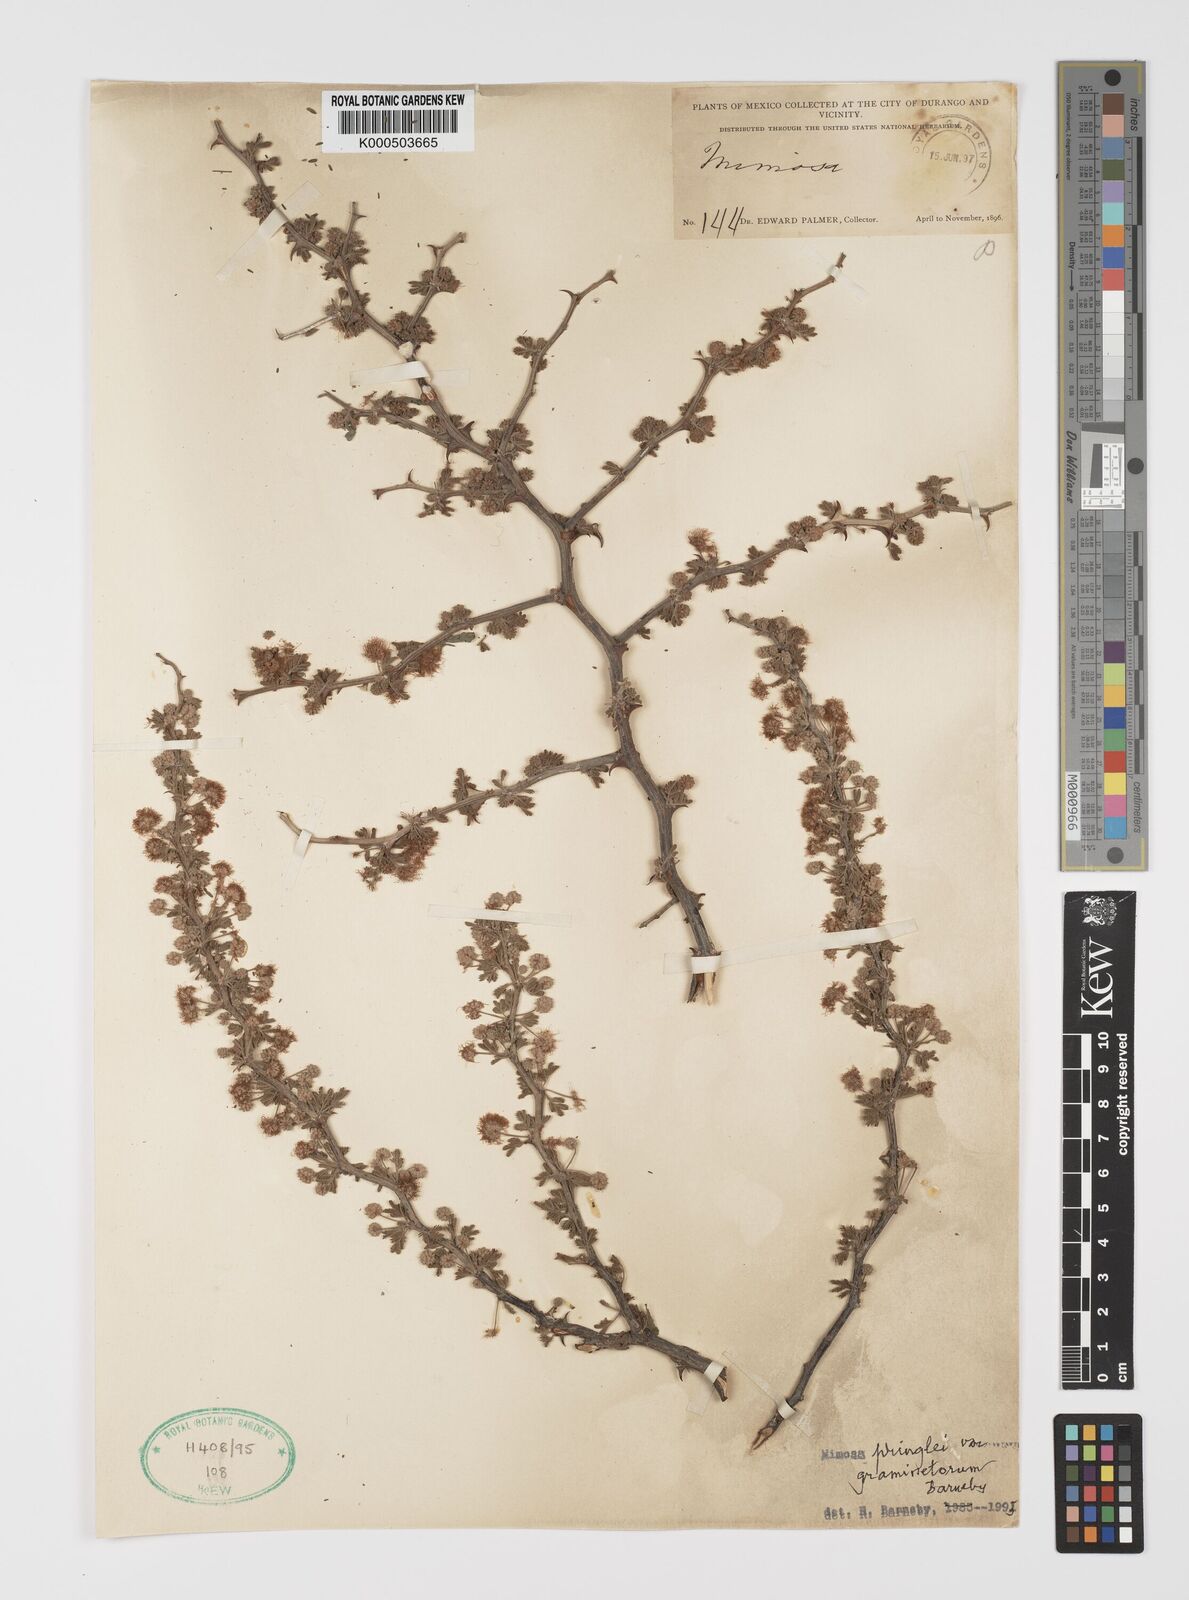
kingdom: Plantae
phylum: Tracheophyta
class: Magnoliopsida
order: Fabales
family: Fabaceae
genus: Mimosa
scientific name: Mimosa pringlei
